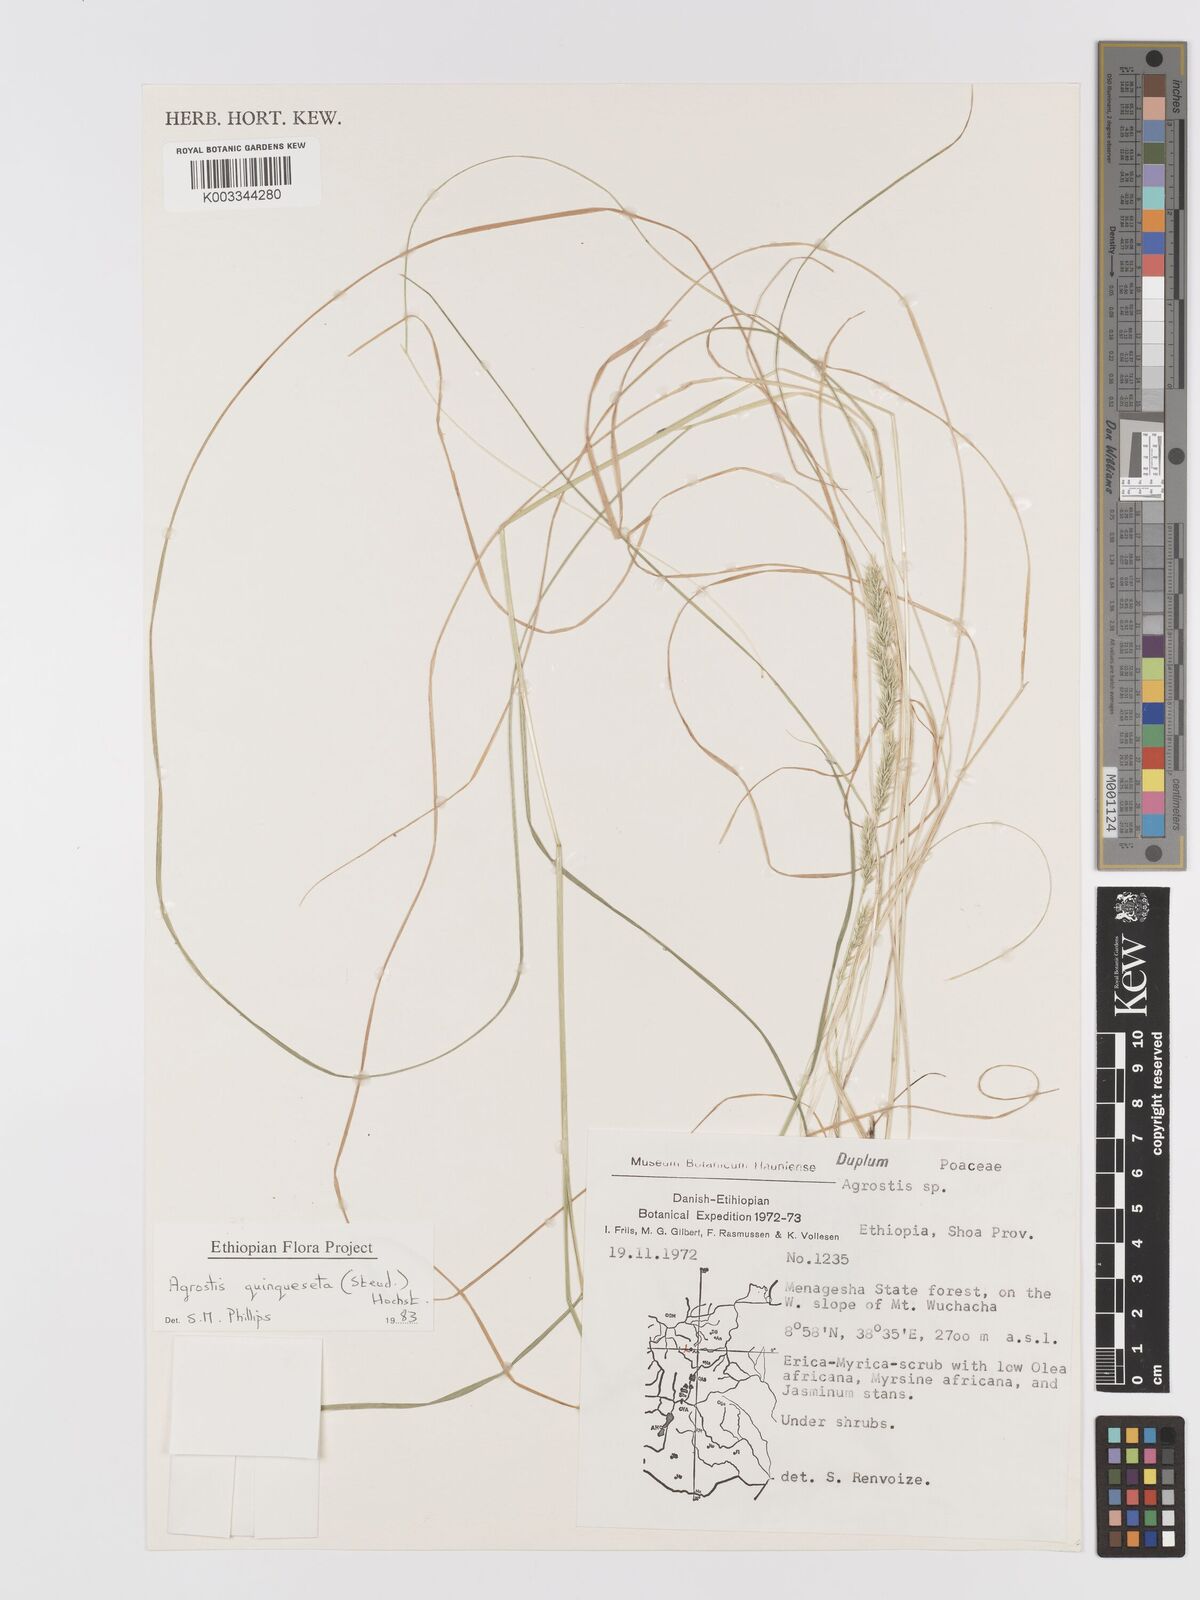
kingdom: Plantae
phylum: Tracheophyta
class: Liliopsida
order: Poales
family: Poaceae
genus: Agrostis
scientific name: Agrostis quinqueseta
